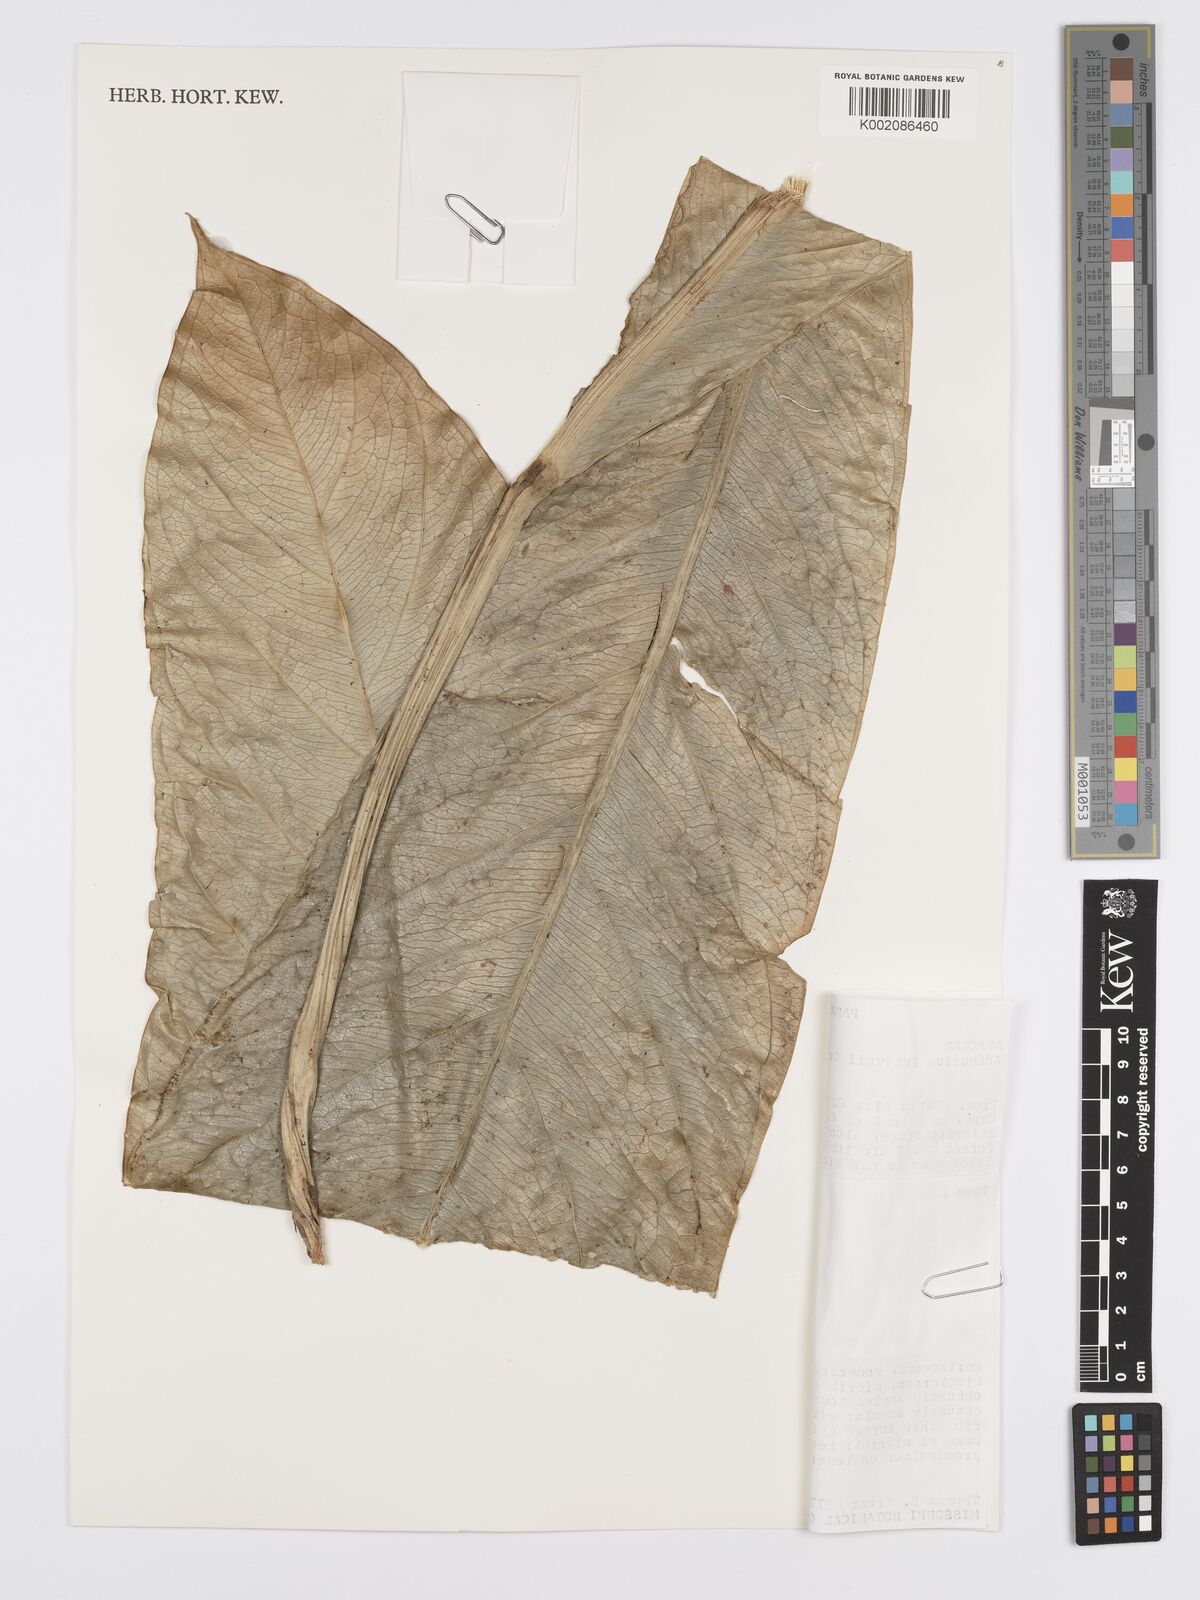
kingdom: Plantae
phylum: Tracheophyta
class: Liliopsida
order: Alismatales
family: Araceae
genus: Anthurium
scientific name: Anthurium luteynii
